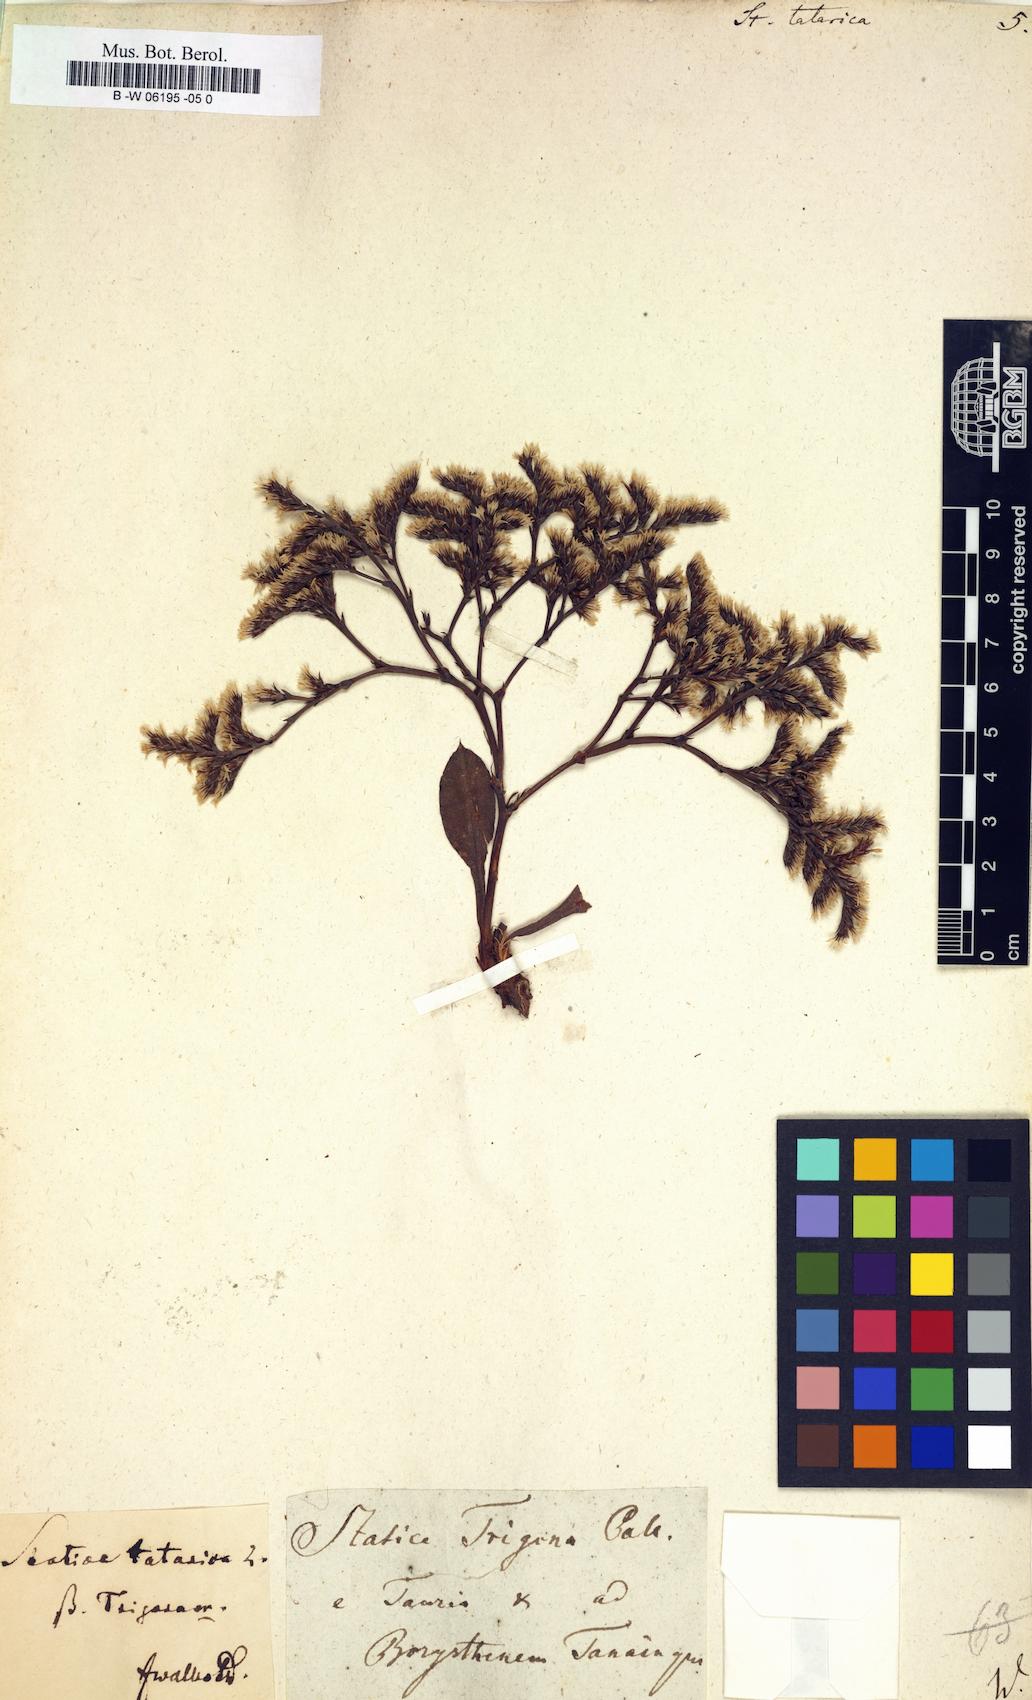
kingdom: Plantae
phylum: Tracheophyta
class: Magnoliopsida
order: Caryophyllales
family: Plumbaginaceae
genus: Goniolimon
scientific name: Goniolimon tataricum
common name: Statice
